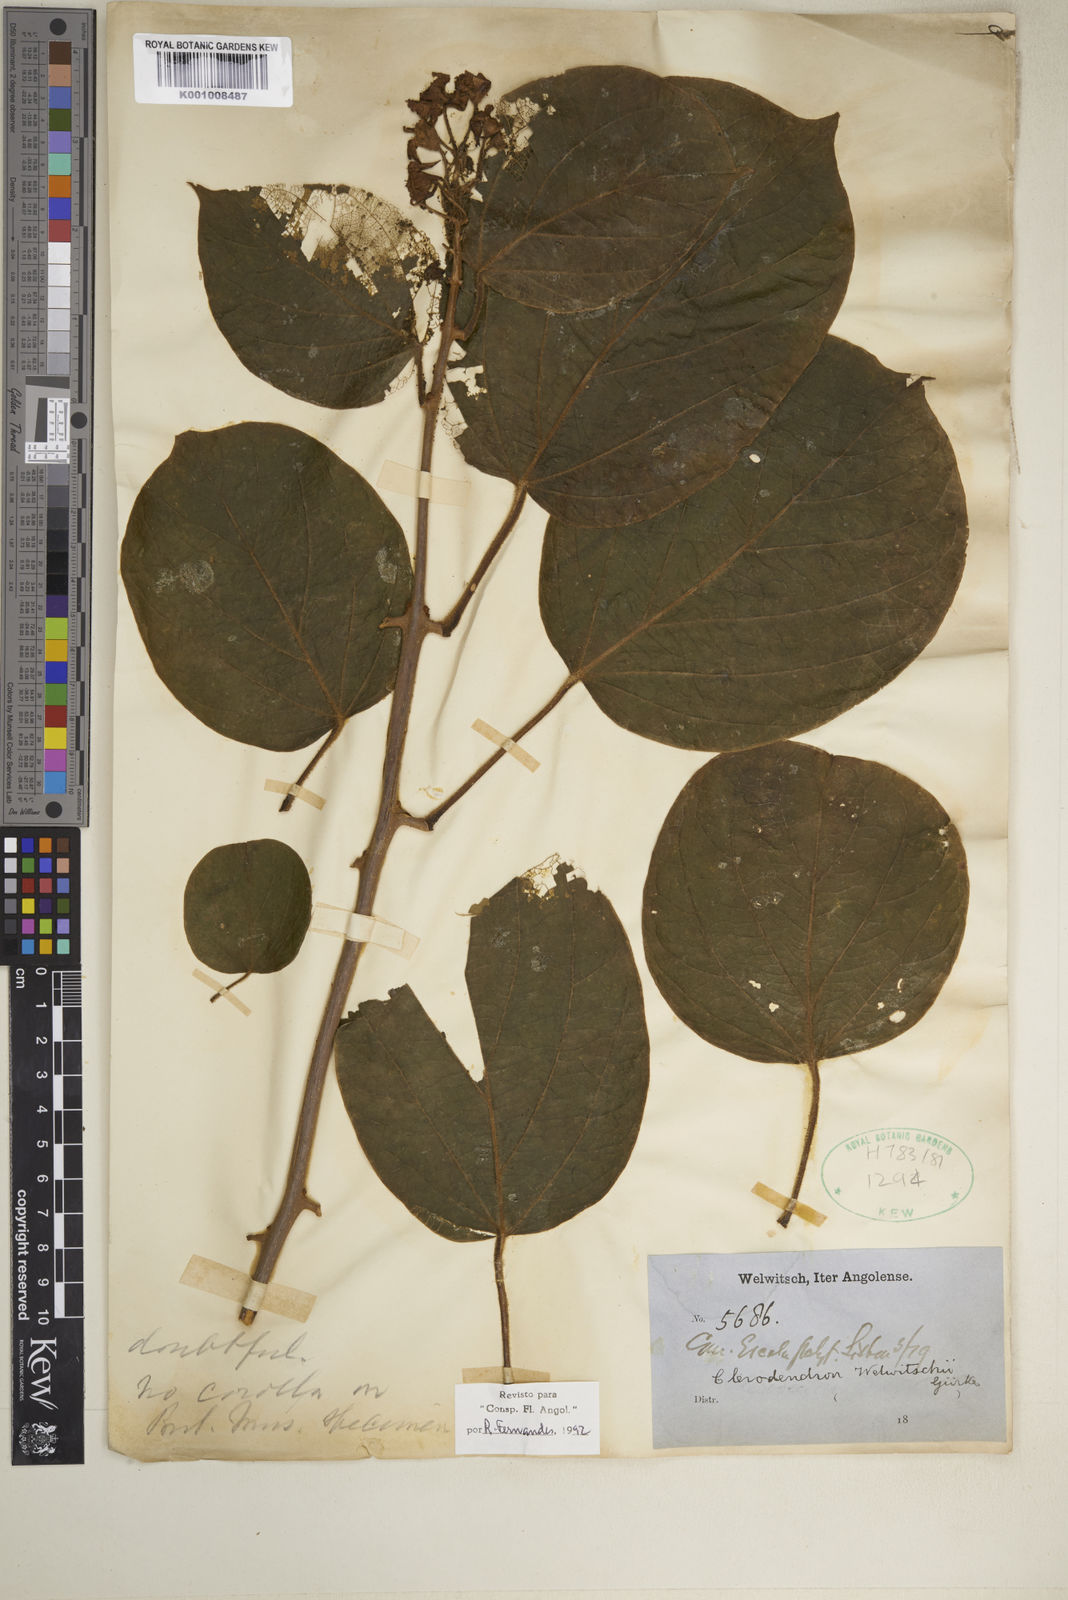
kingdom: Plantae
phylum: Tracheophyta
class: Magnoliopsida
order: Lamiales
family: Lamiaceae
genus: Clerodendrum
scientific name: Clerodendrum
